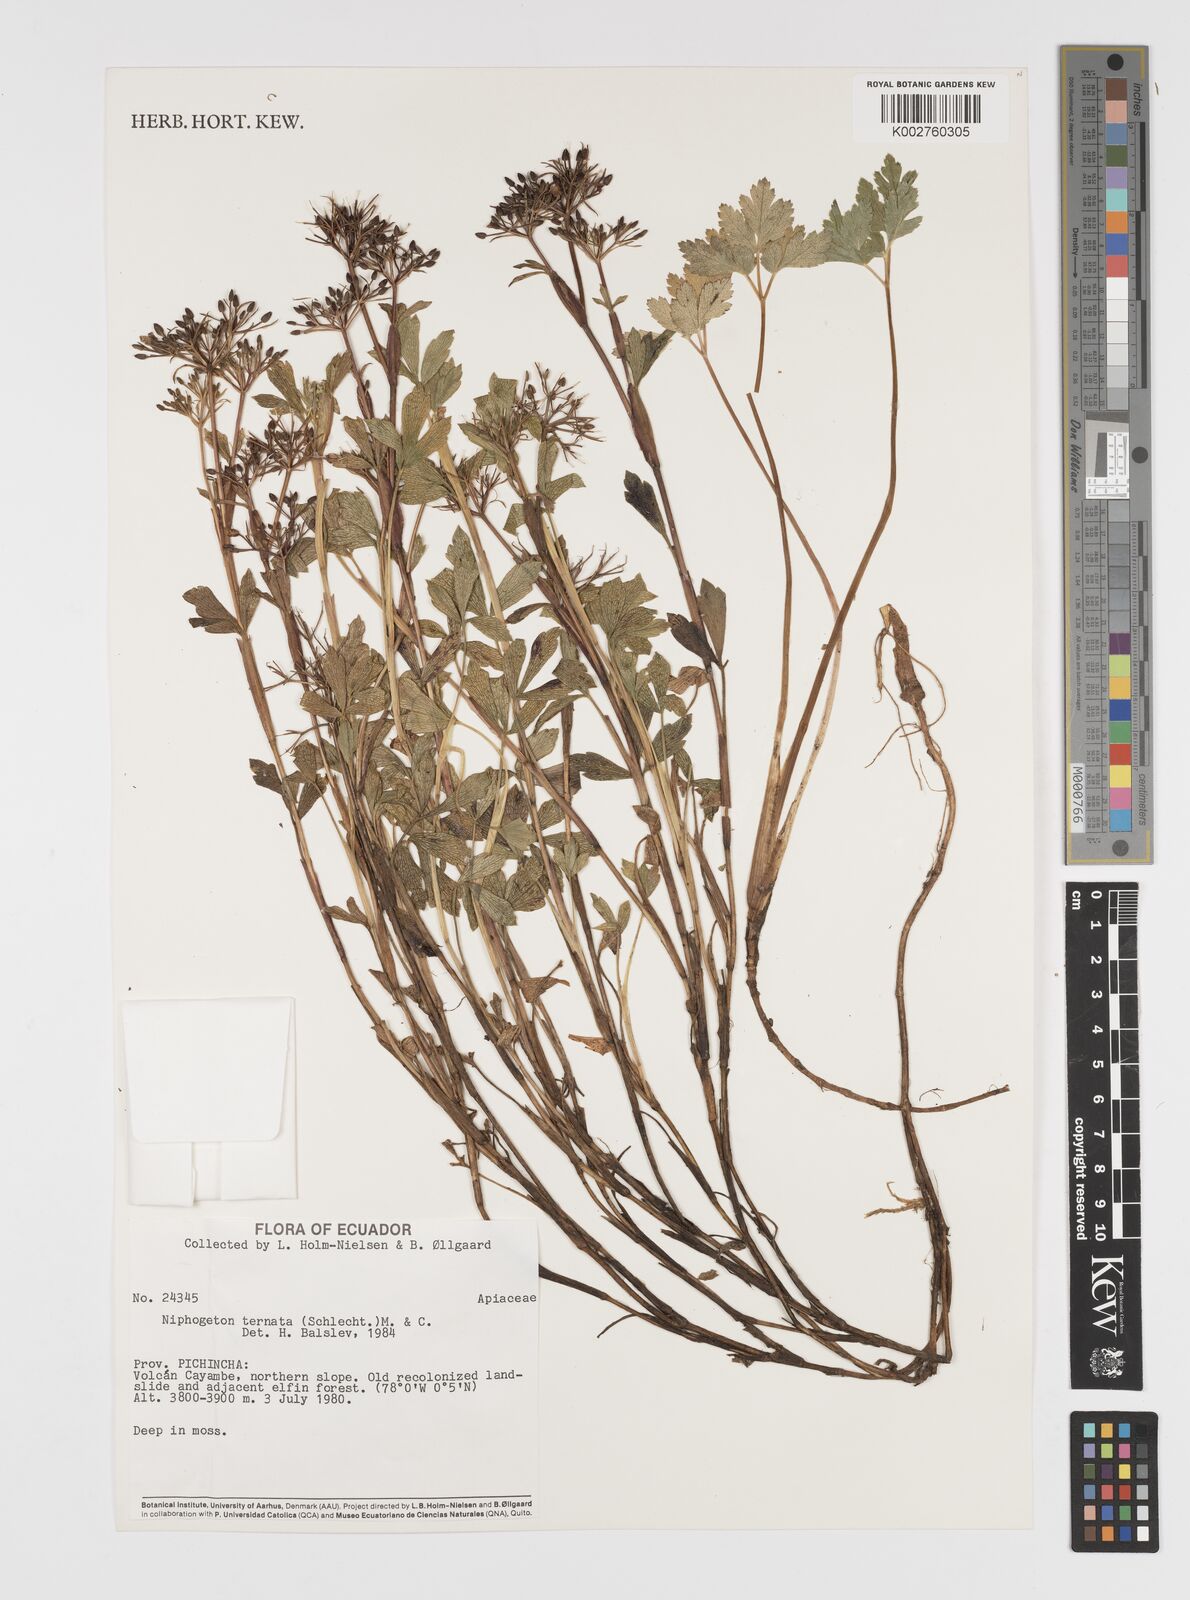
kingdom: Plantae
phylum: Tracheophyta
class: Magnoliopsida
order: Apiales
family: Apiaceae
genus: Niphogeton
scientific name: Niphogeton ternata
